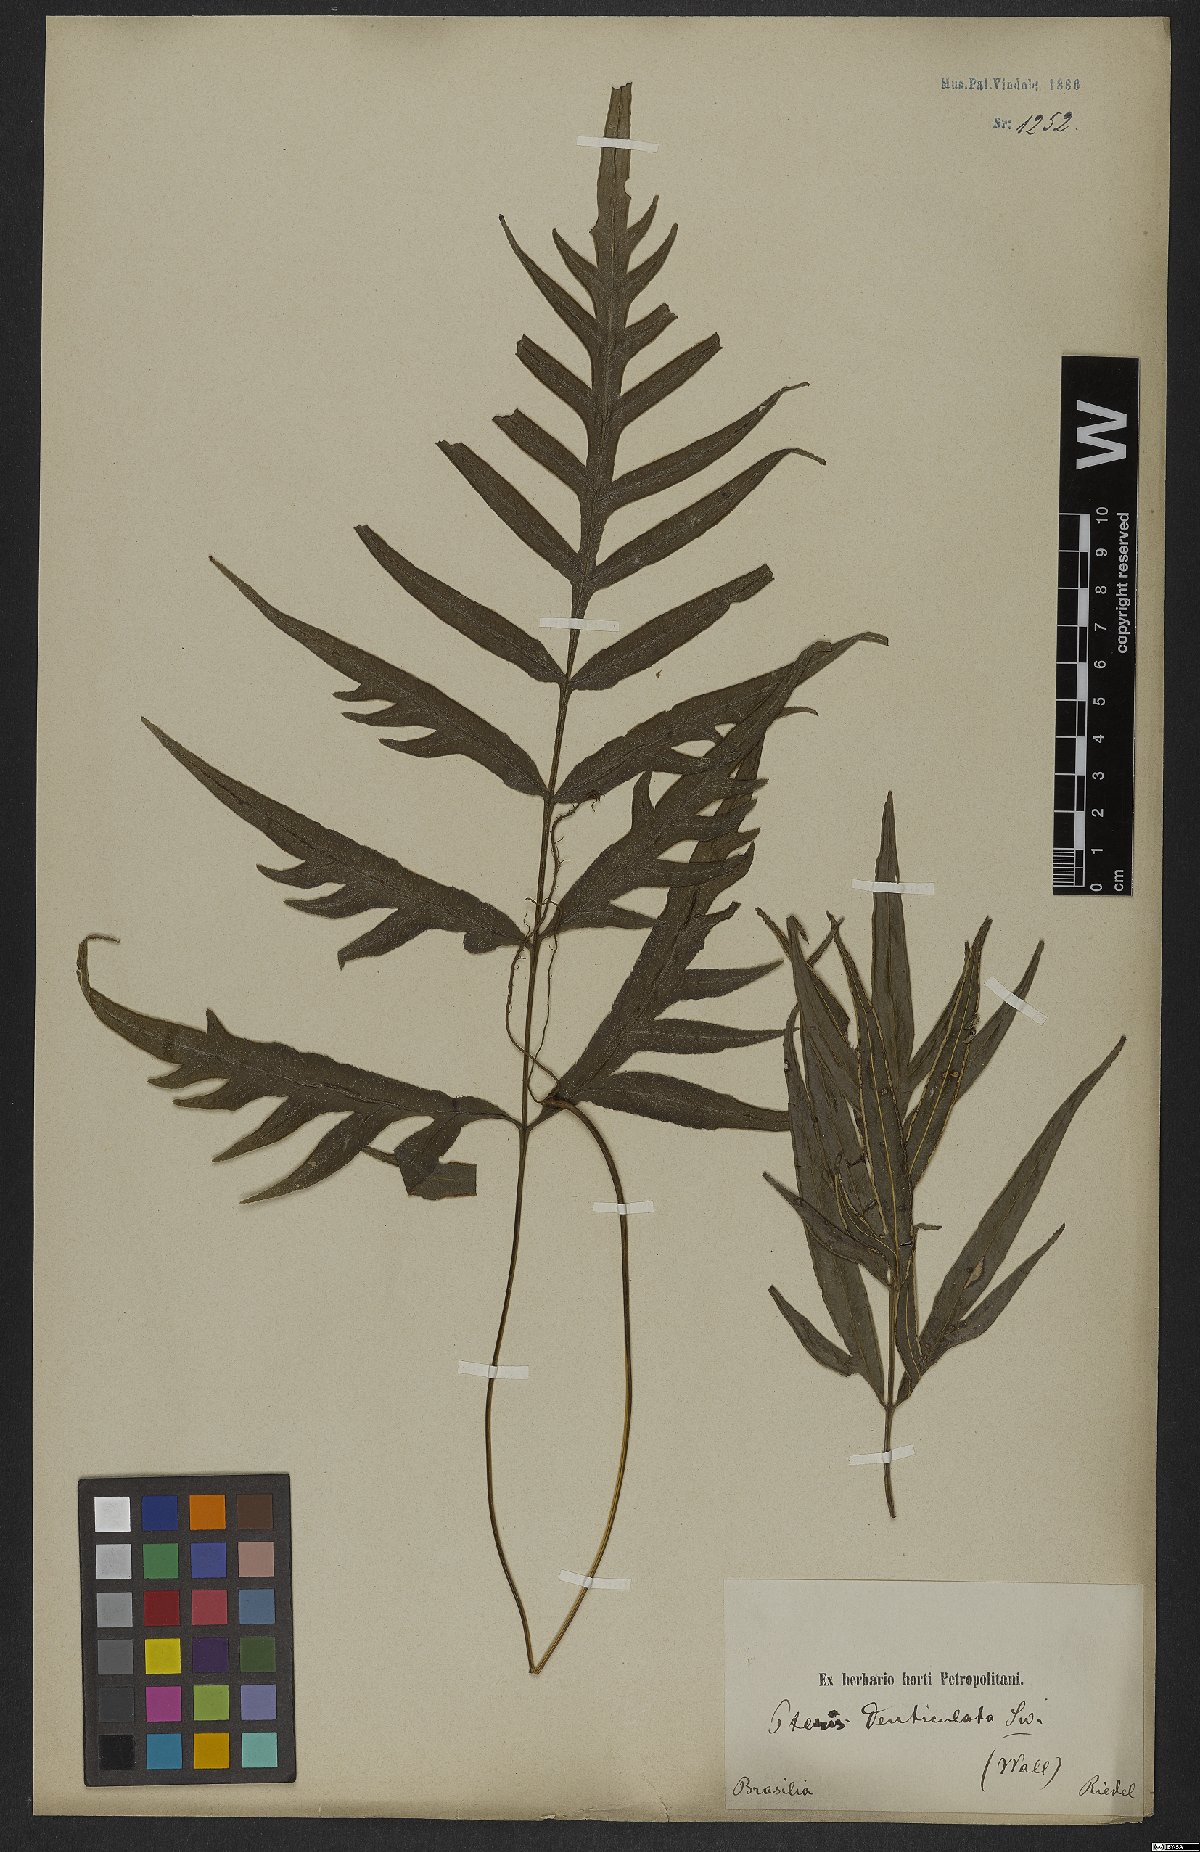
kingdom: Plantae
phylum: Tracheophyta
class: Polypodiopsida
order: Polypodiales
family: Pteridaceae
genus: Pteris
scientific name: Pteris denticulata
